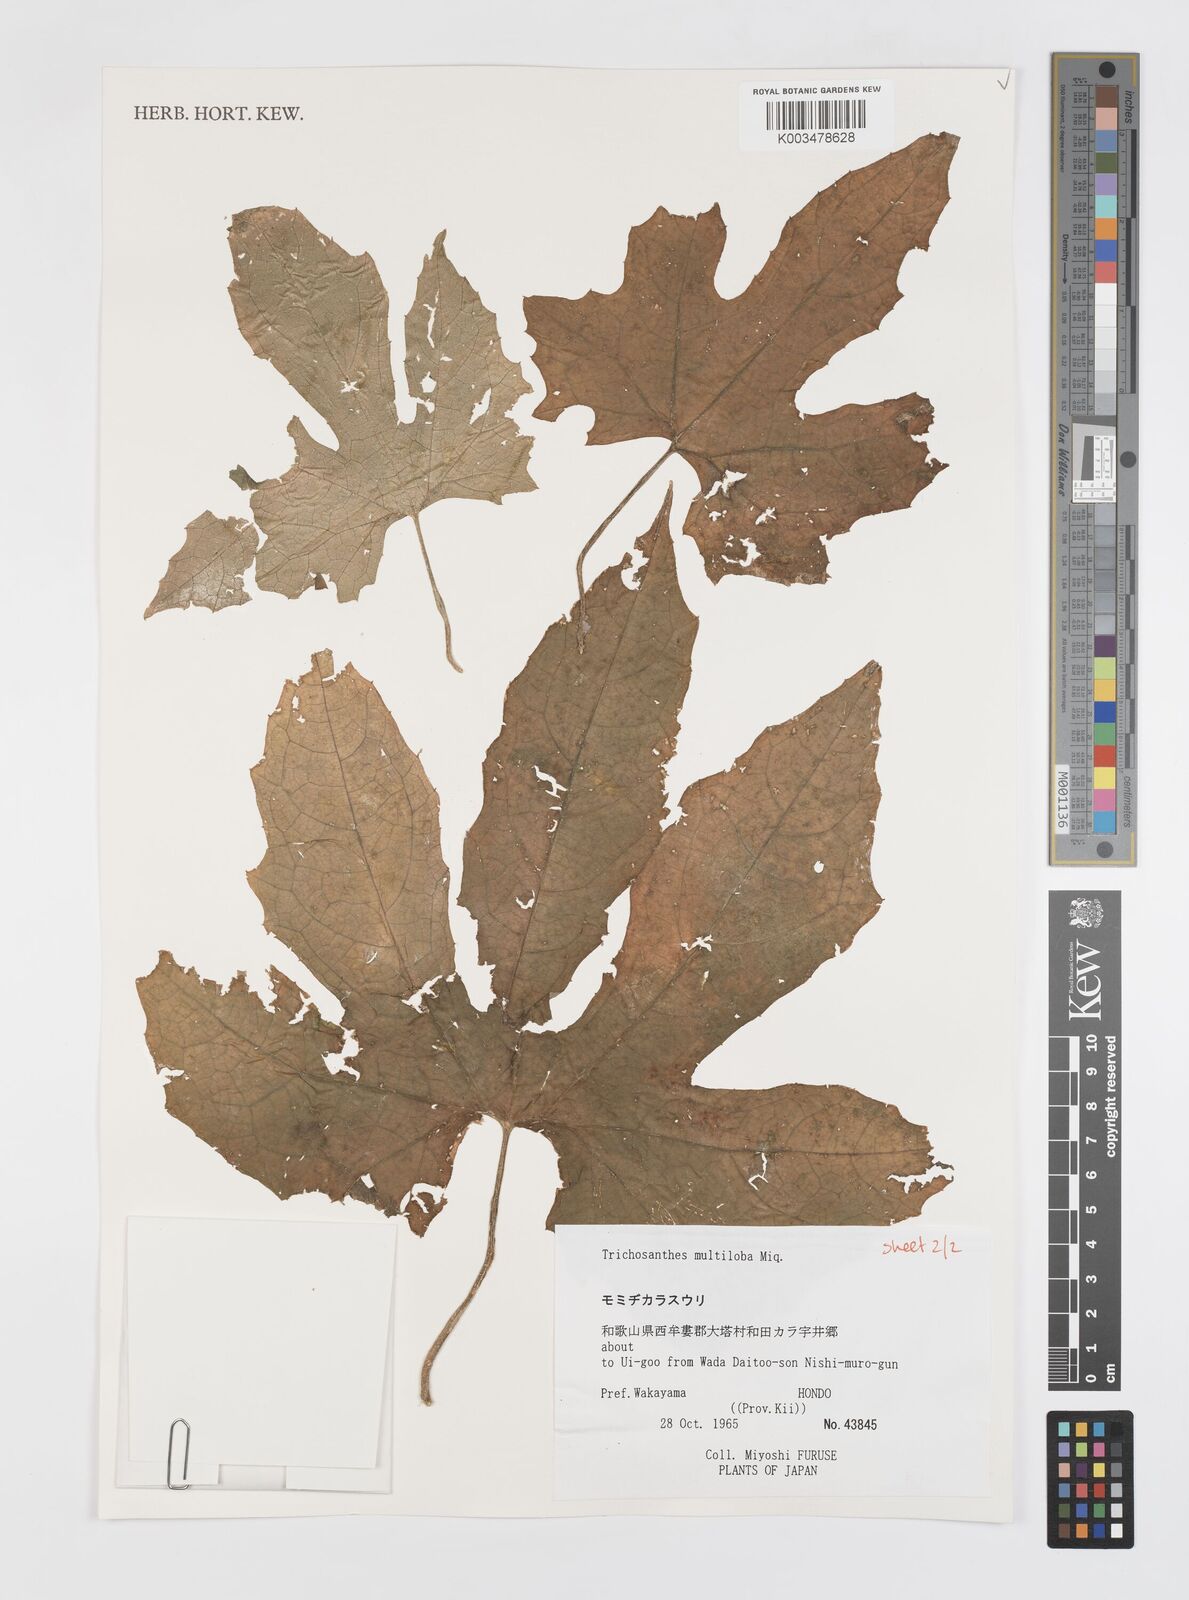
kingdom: Plantae
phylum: Tracheophyta
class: Magnoliopsida
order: Cucurbitales
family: Cucurbitaceae
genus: Trichosanthes
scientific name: Trichosanthes multiloba
